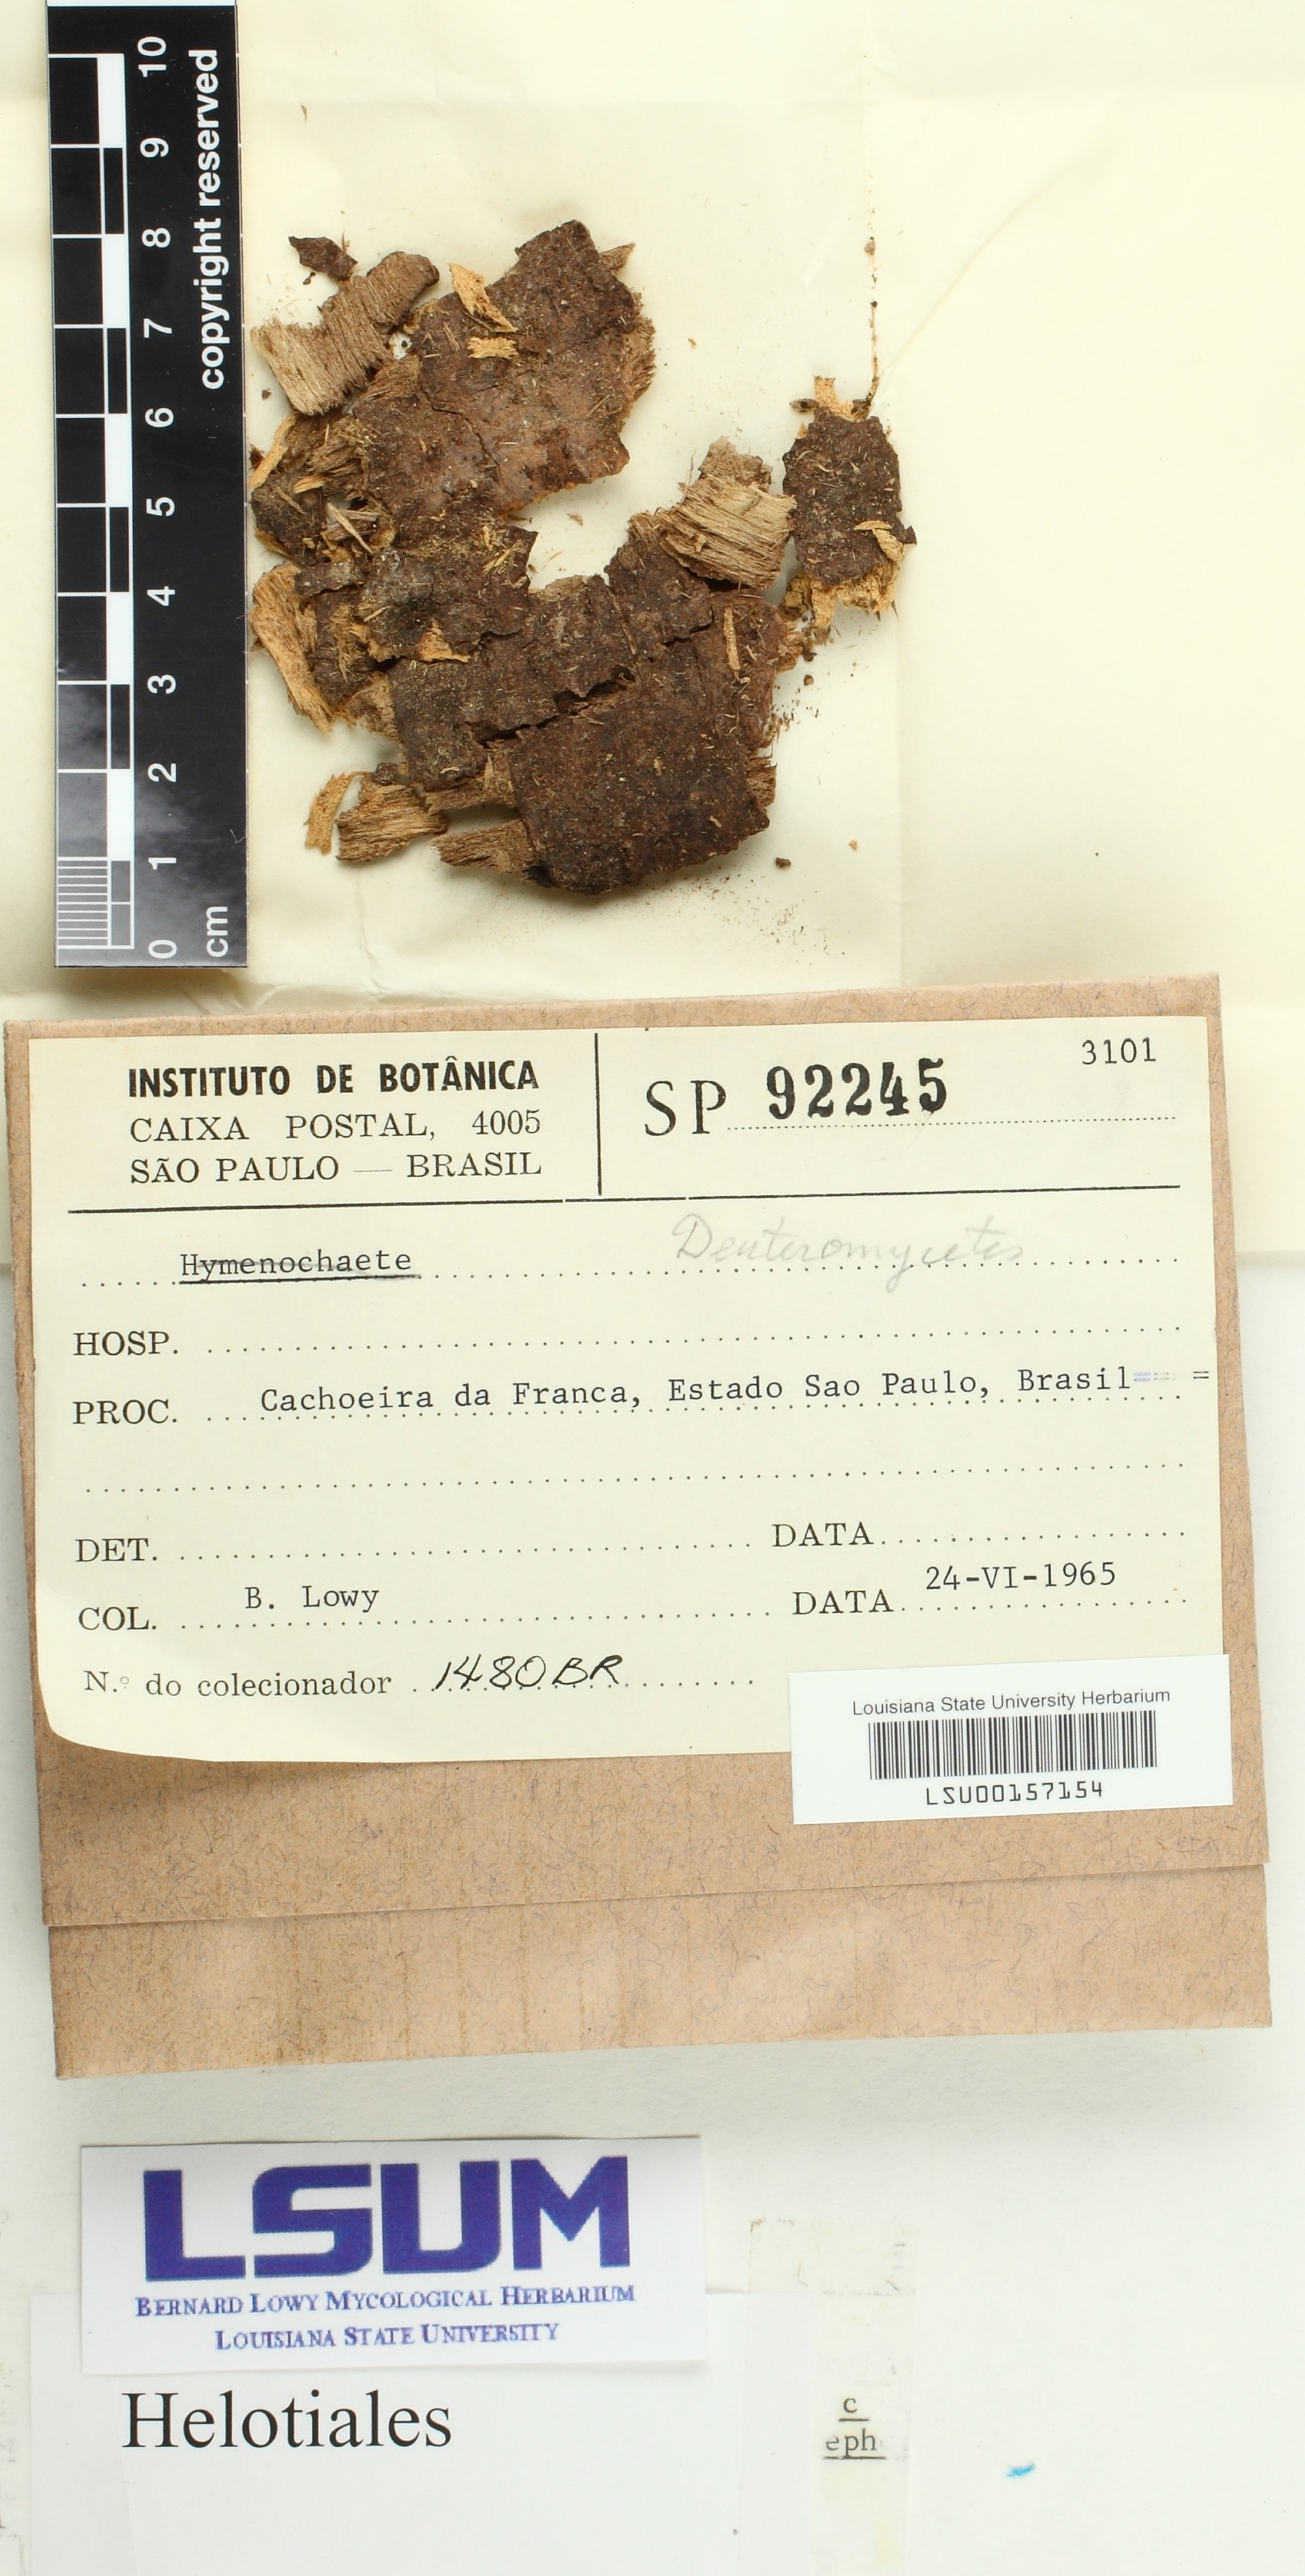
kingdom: Fungi
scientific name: Fungi
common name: Fungi
